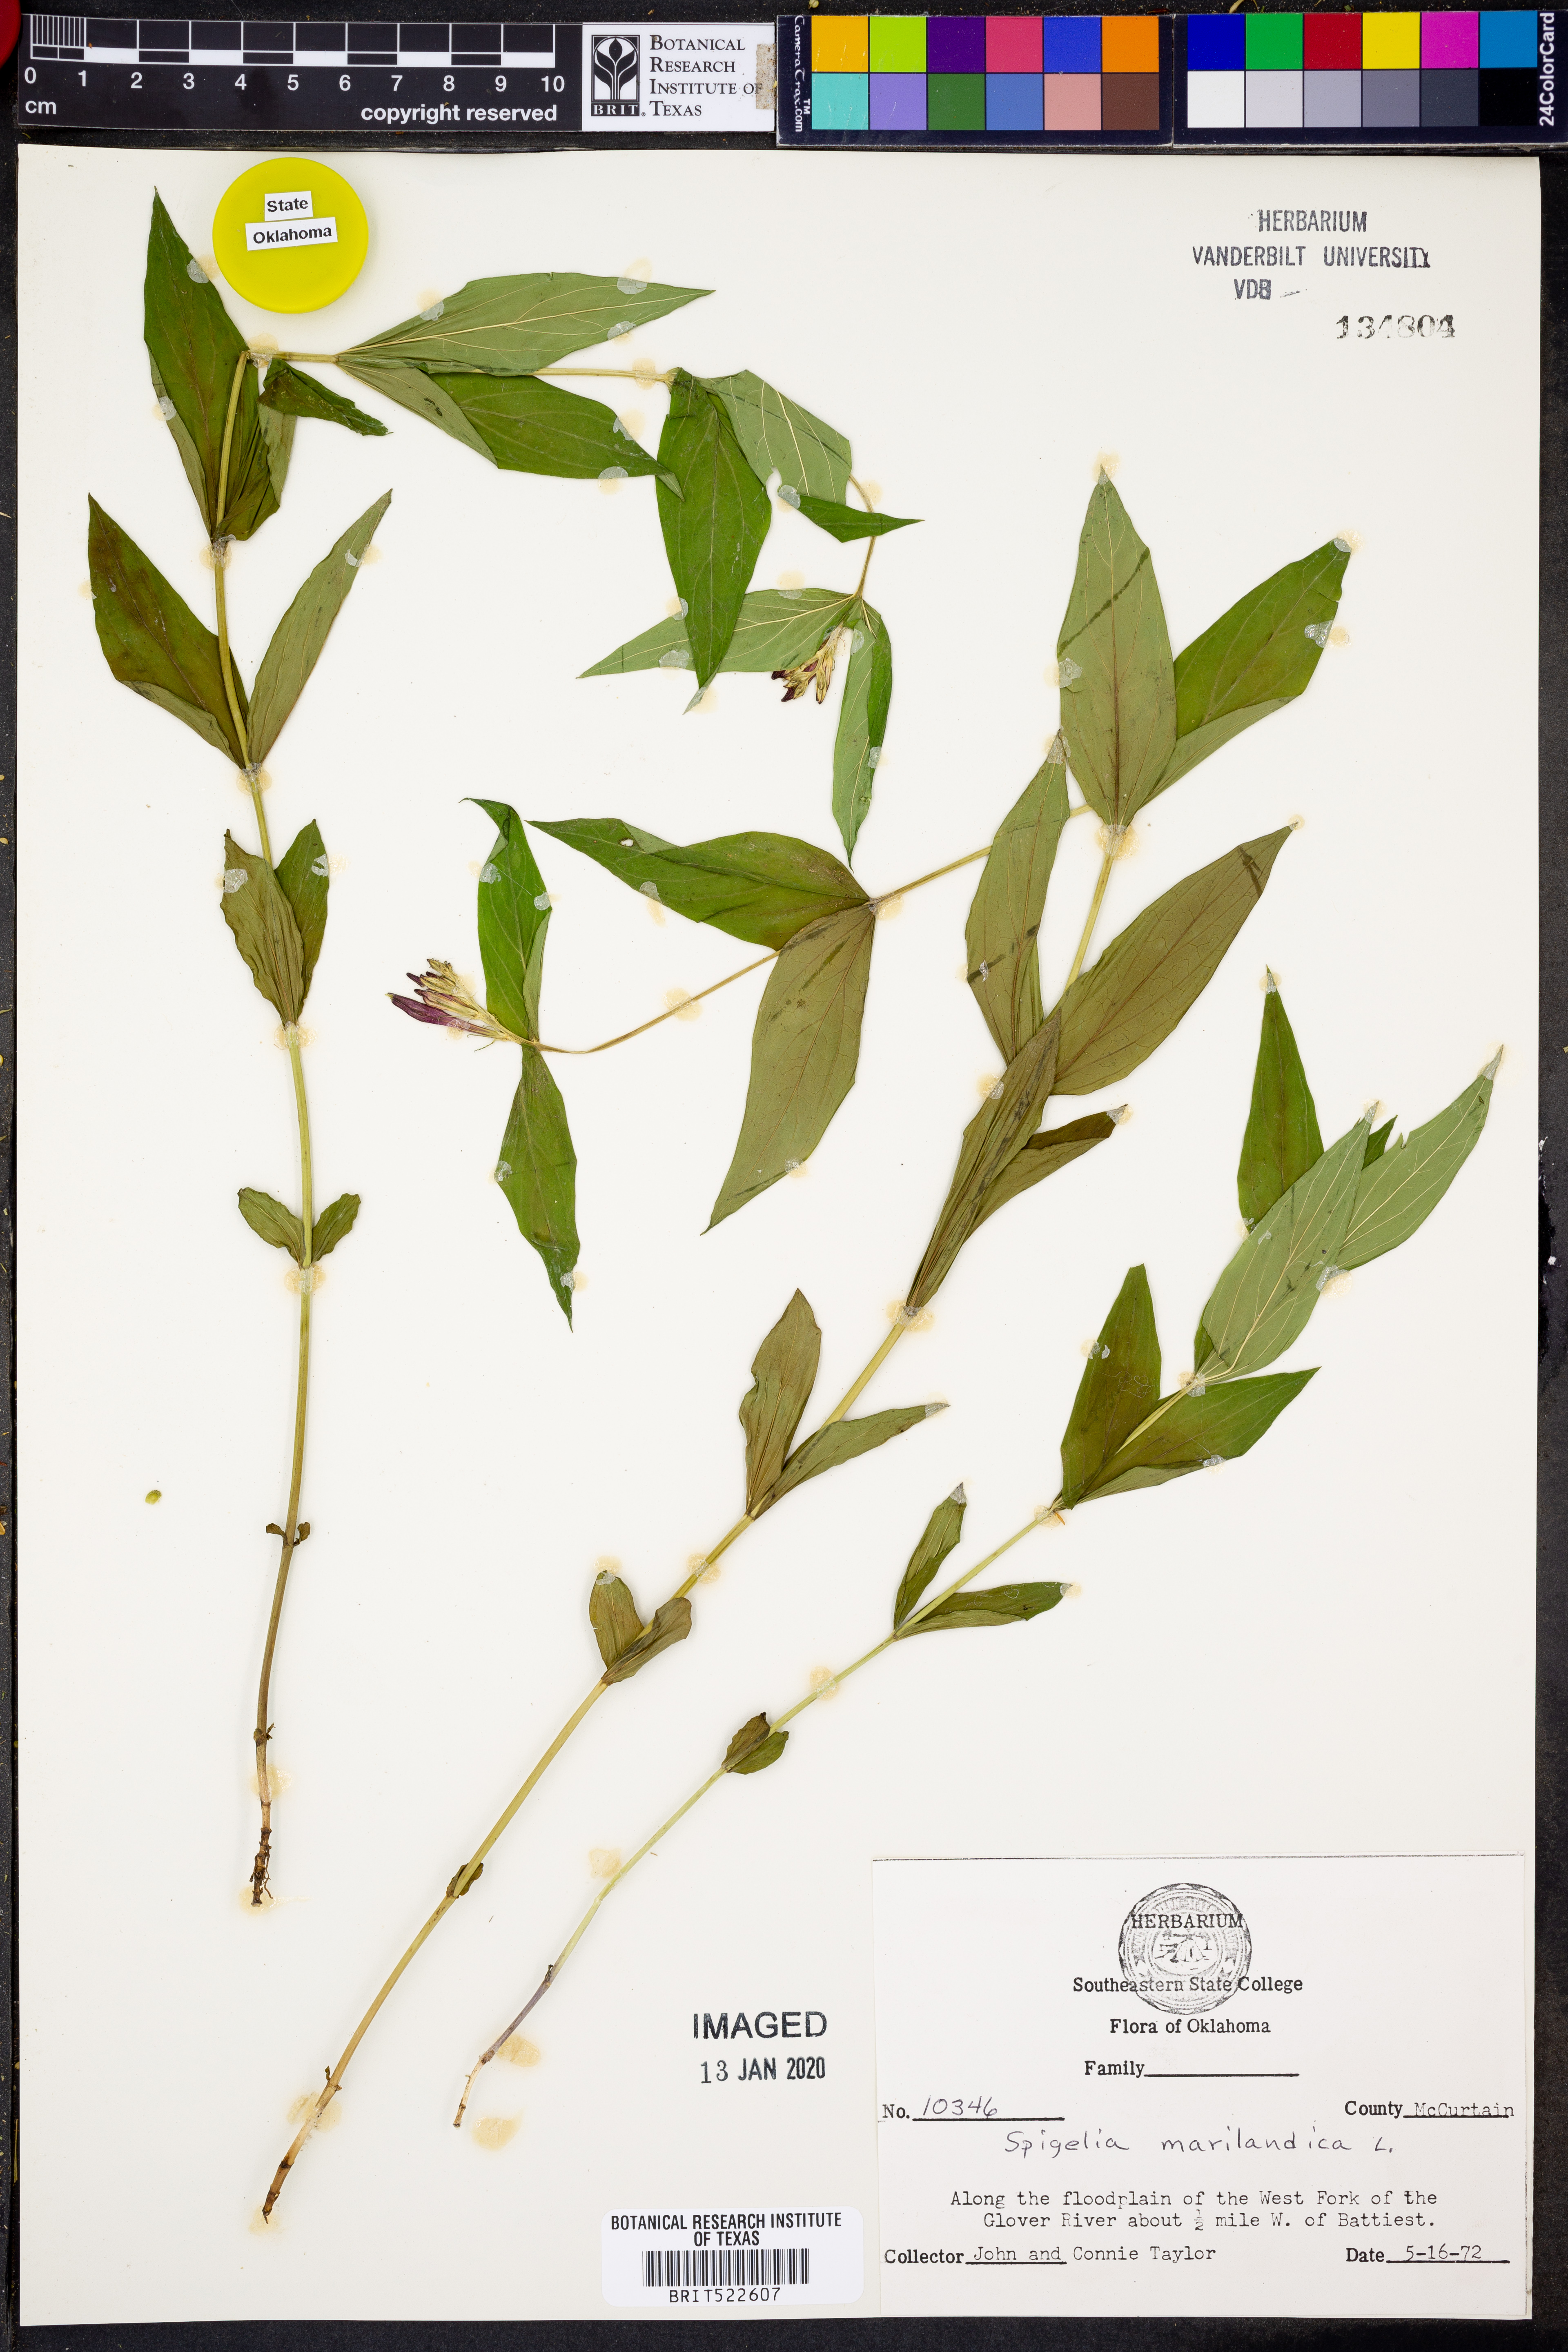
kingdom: Plantae
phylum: Tracheophyta
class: Magnoliopsida
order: Gentianales
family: Loganiaceae
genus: Spigelia
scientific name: Spigelia marilandica
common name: Indian-pink
